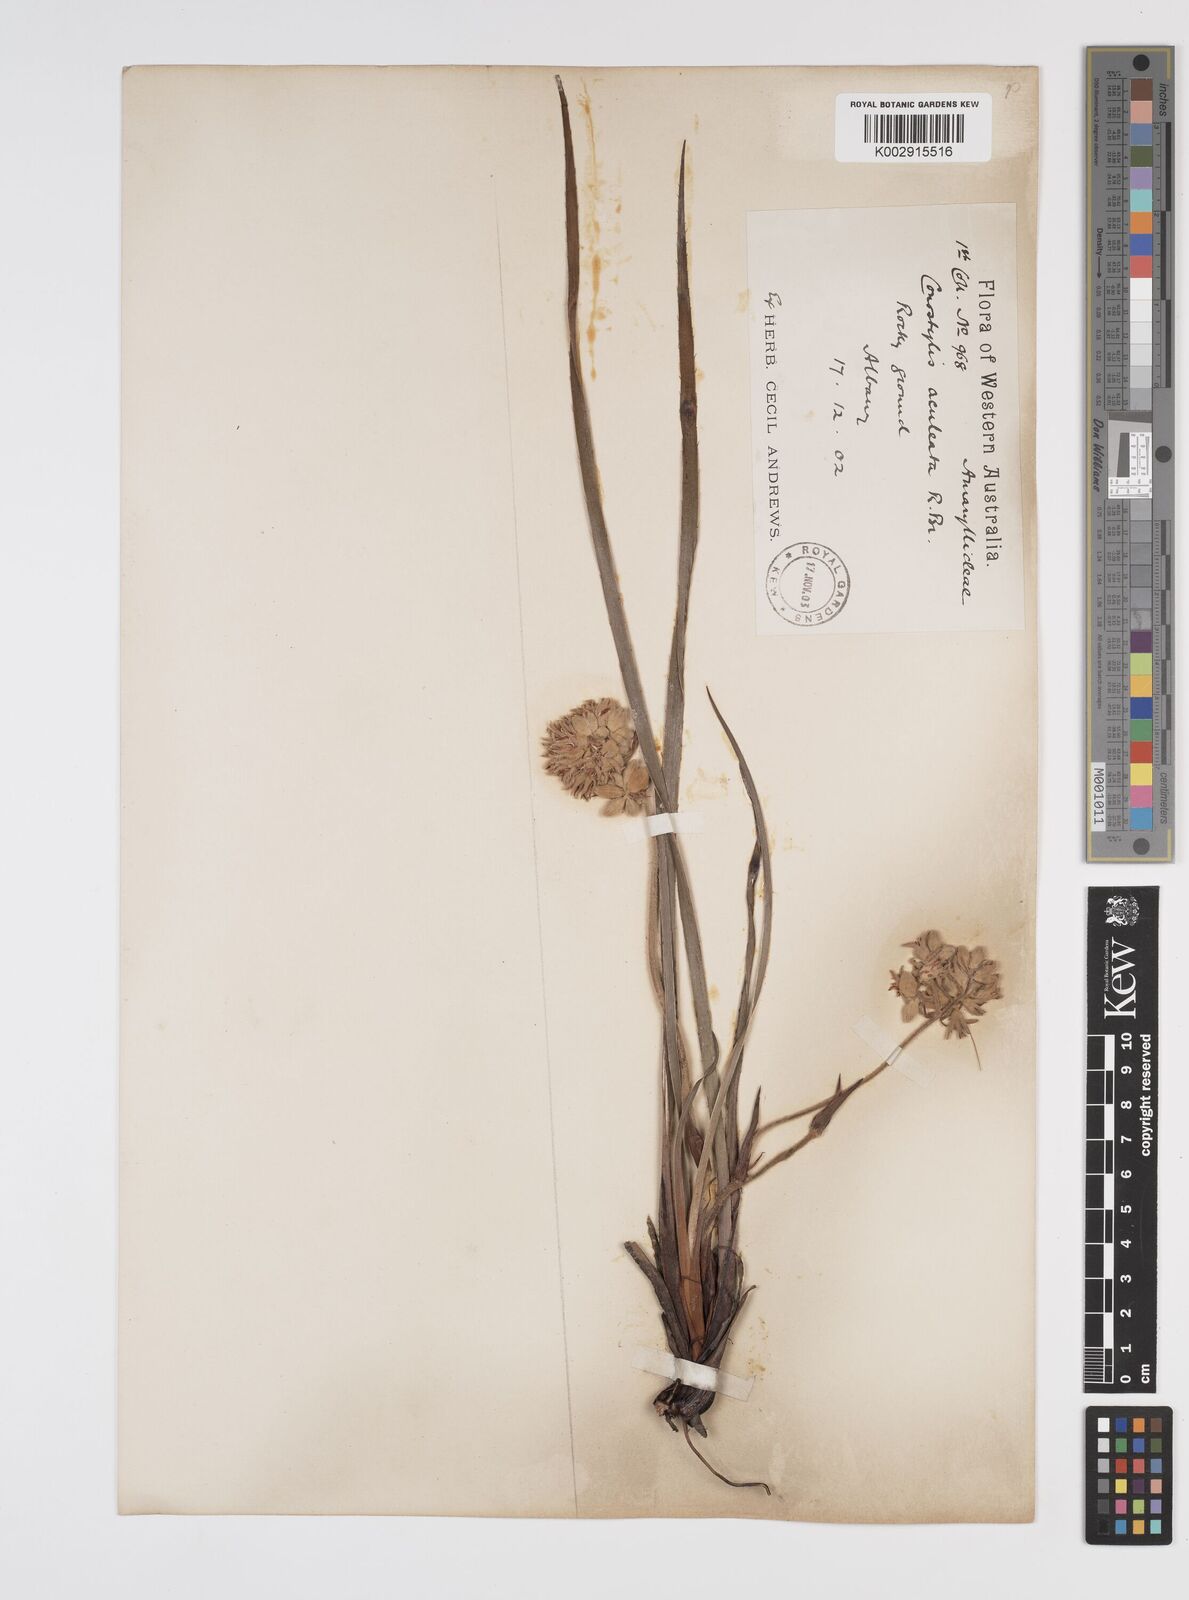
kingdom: Plantae
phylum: Tracheophyta
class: Liliopsida
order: Commelinales
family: Haemodoraceae
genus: Conostylis
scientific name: Conostylis aculeata
